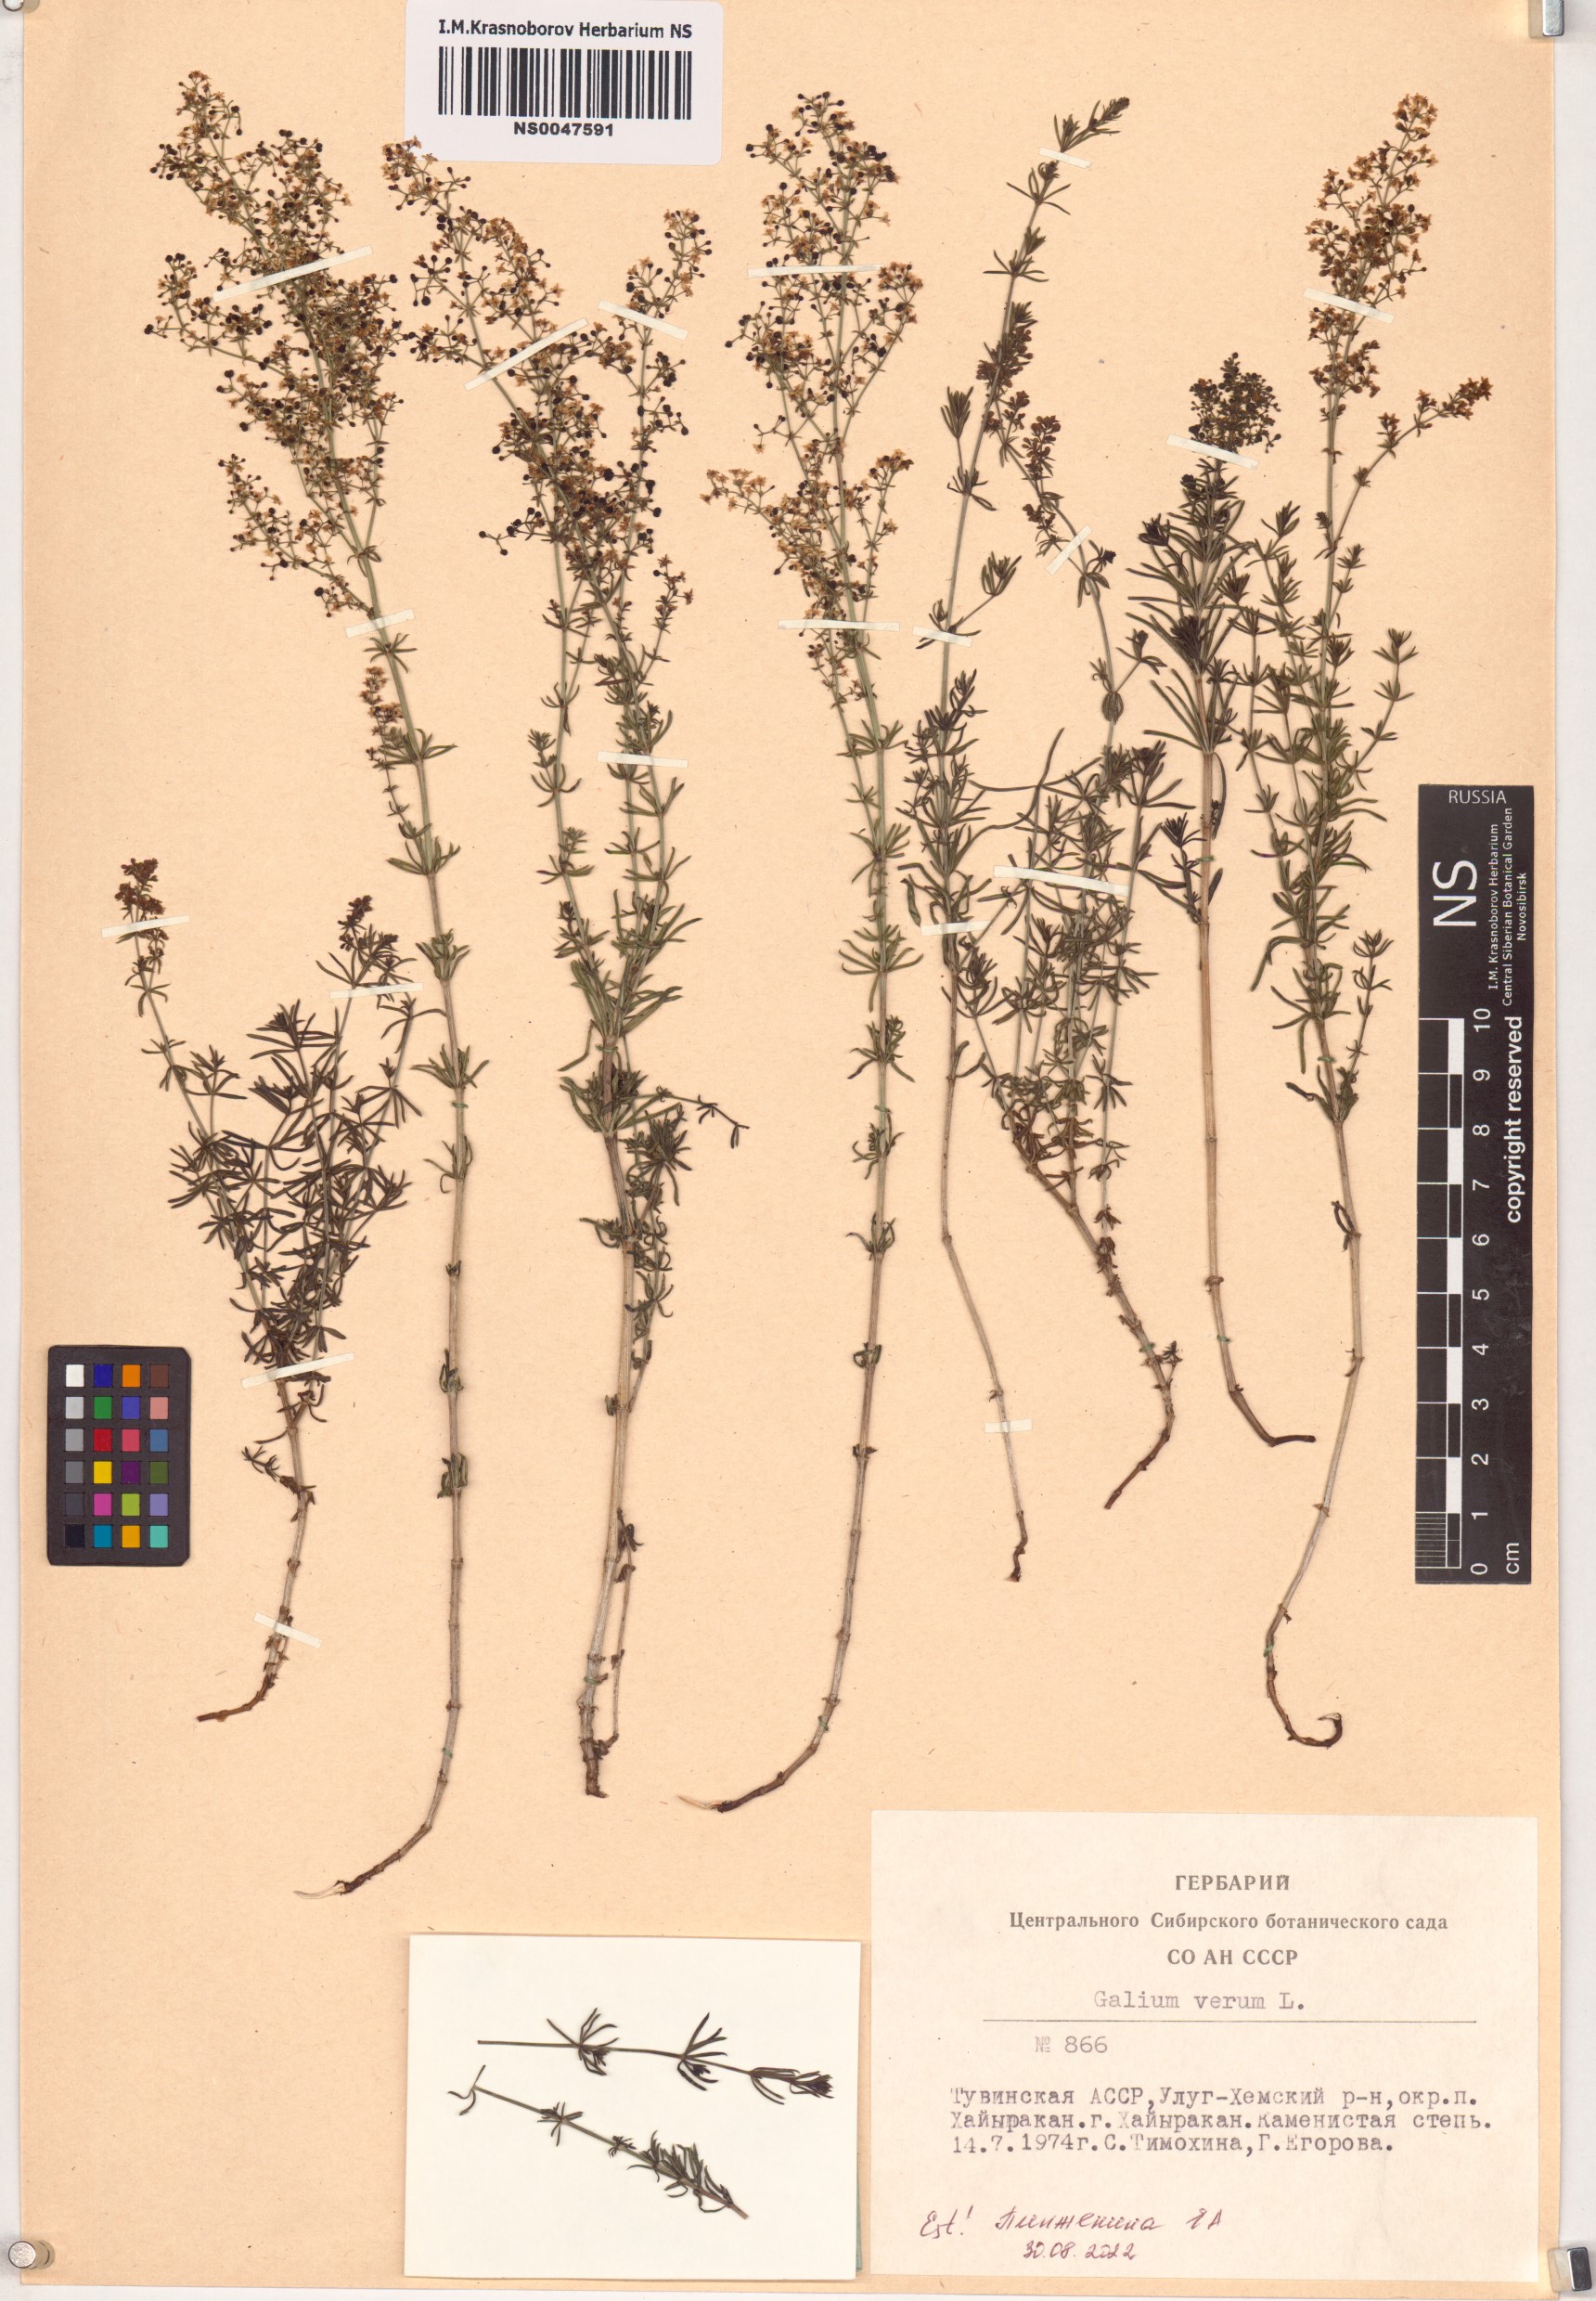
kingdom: Plantae
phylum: Tracheophyta
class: Magnoliopsida
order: Gentianales
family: Rubiaceae
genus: Galium
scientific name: Galium verum
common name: Lady's bedstraw
